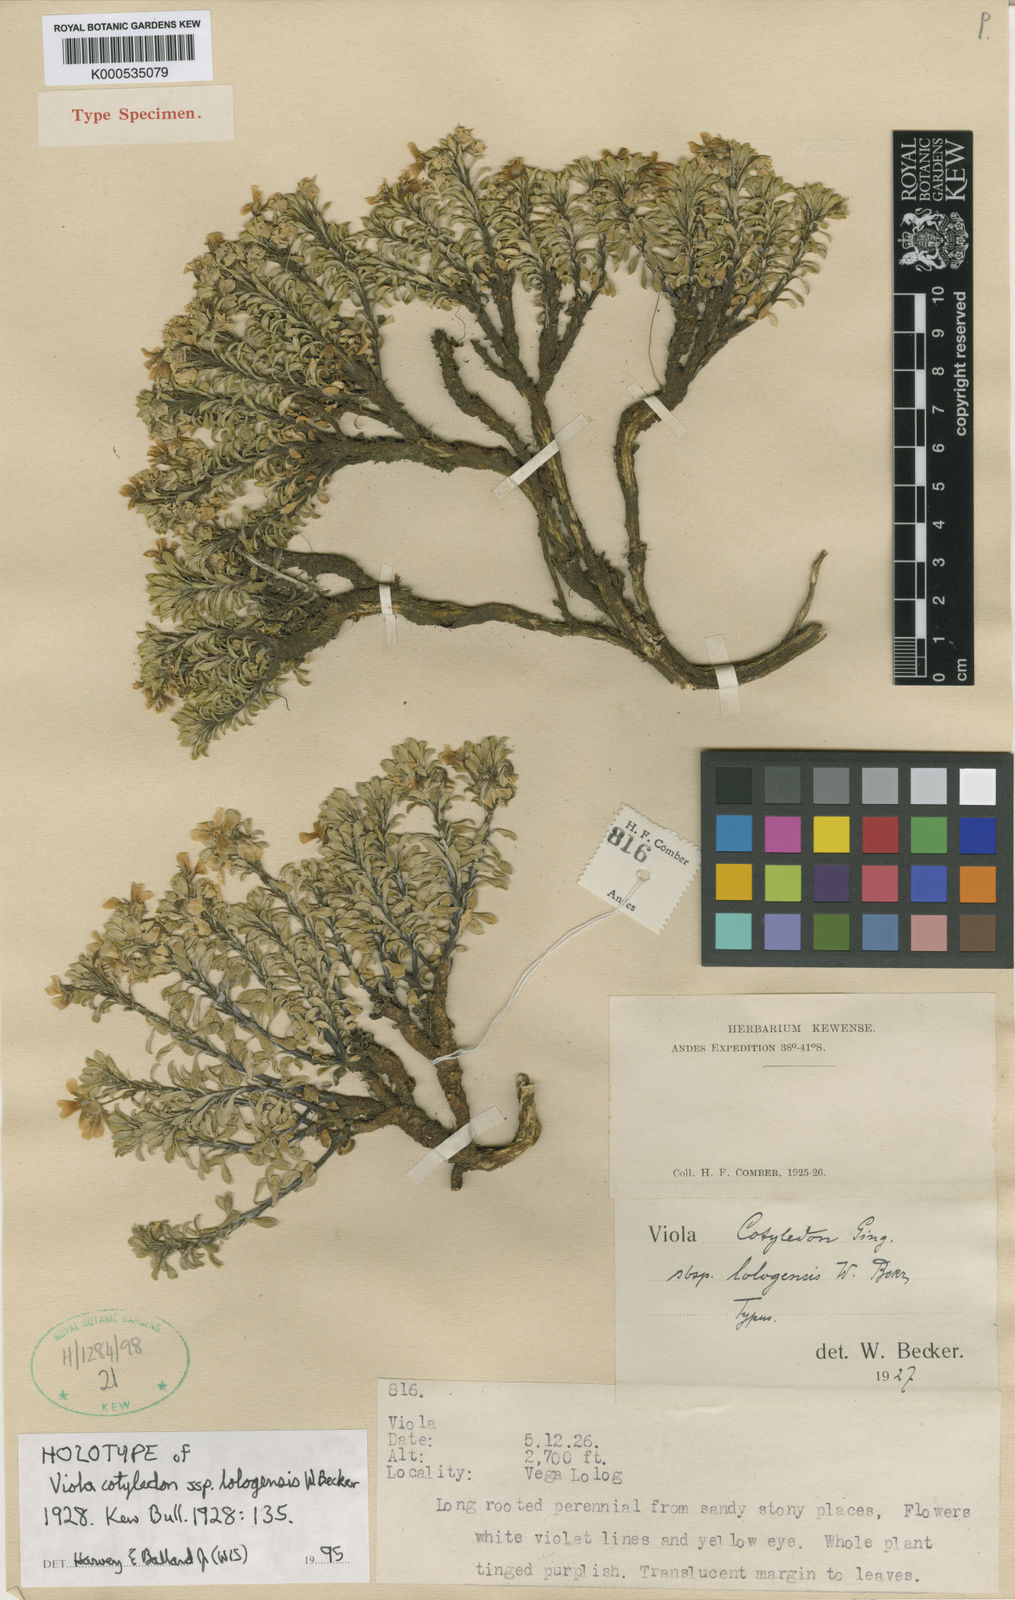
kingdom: Plantae
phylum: Tracheophyta
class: Magnoliopsida
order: Malpighiales
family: Violaceae
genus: Viola
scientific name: Viola lologensis
